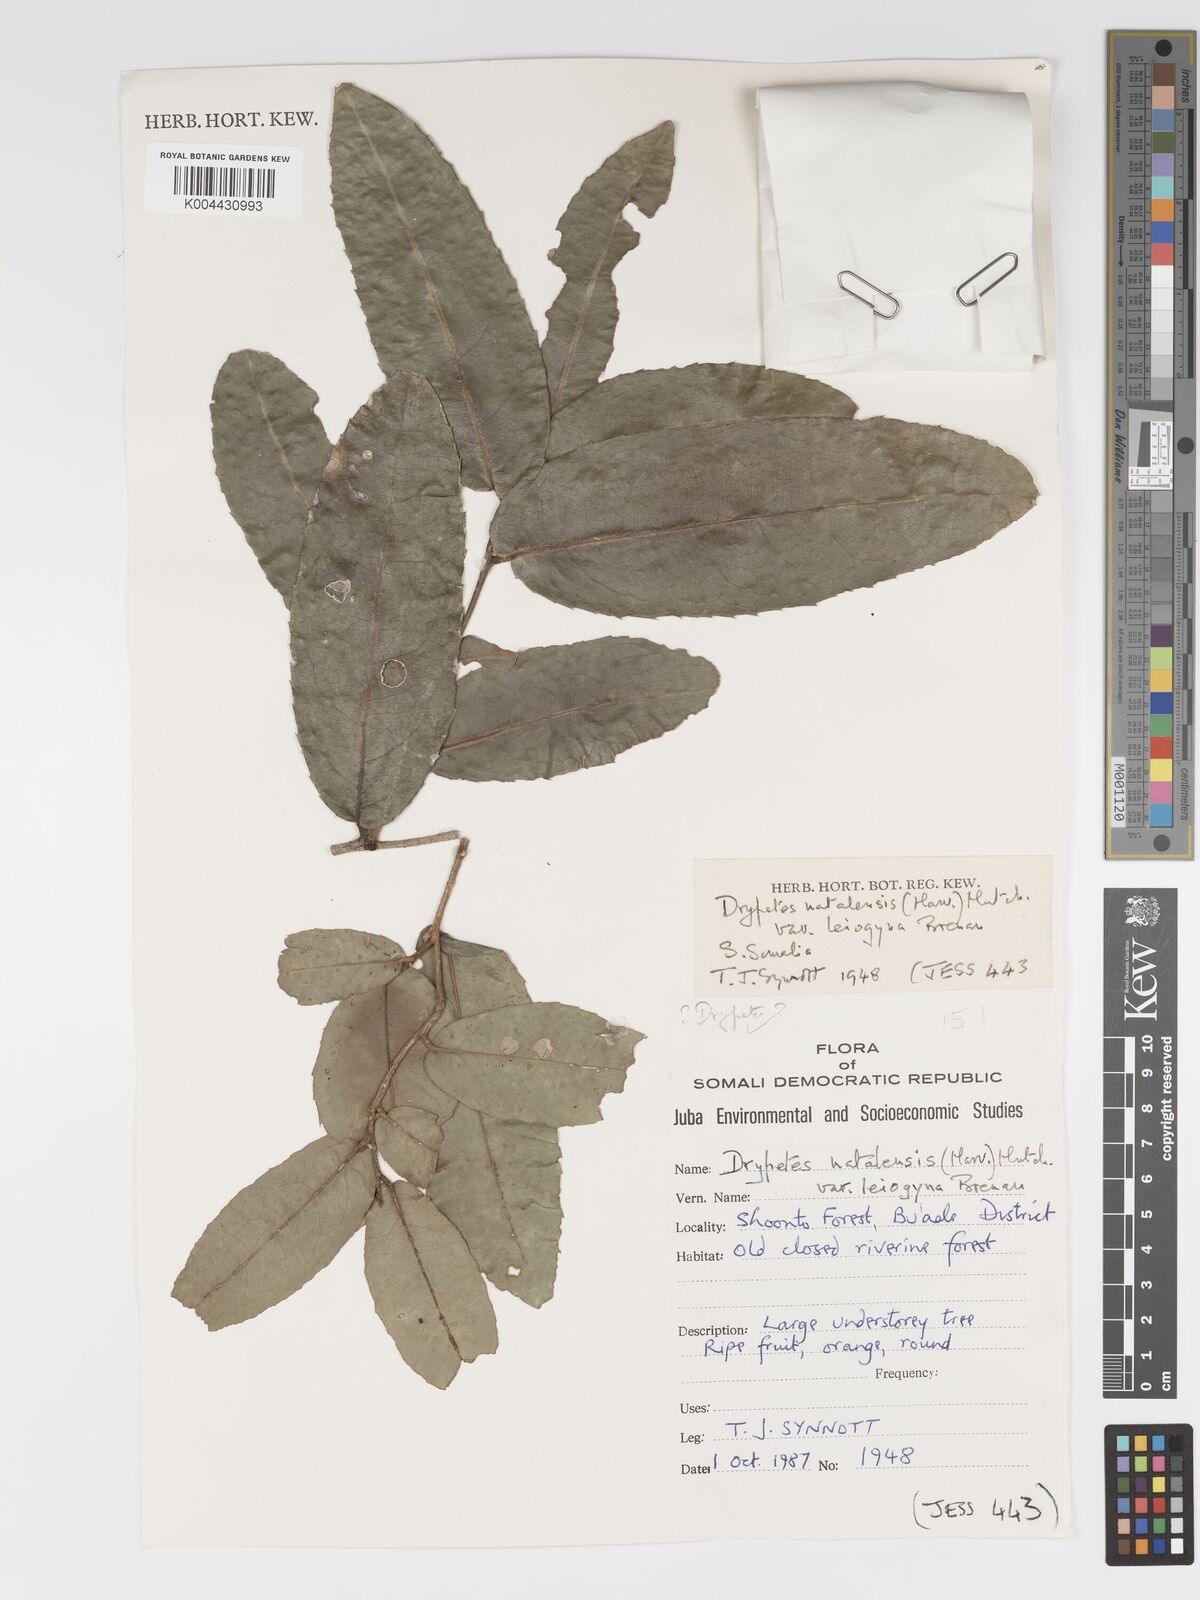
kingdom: Plantae
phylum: Tracheophyta
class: Magnoliopsida
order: Malpighiales
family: Putranjivaceae
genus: Drypetes
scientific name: Drypetes natalensis
